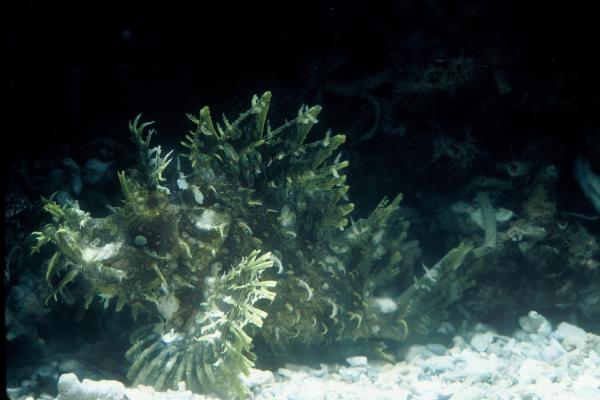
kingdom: Animalia
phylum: Chordata
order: Scorpaeniformes
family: Scorpaenidae
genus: Rhinopias
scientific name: Rhinopias frondosa
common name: Weedy scorpionfish
